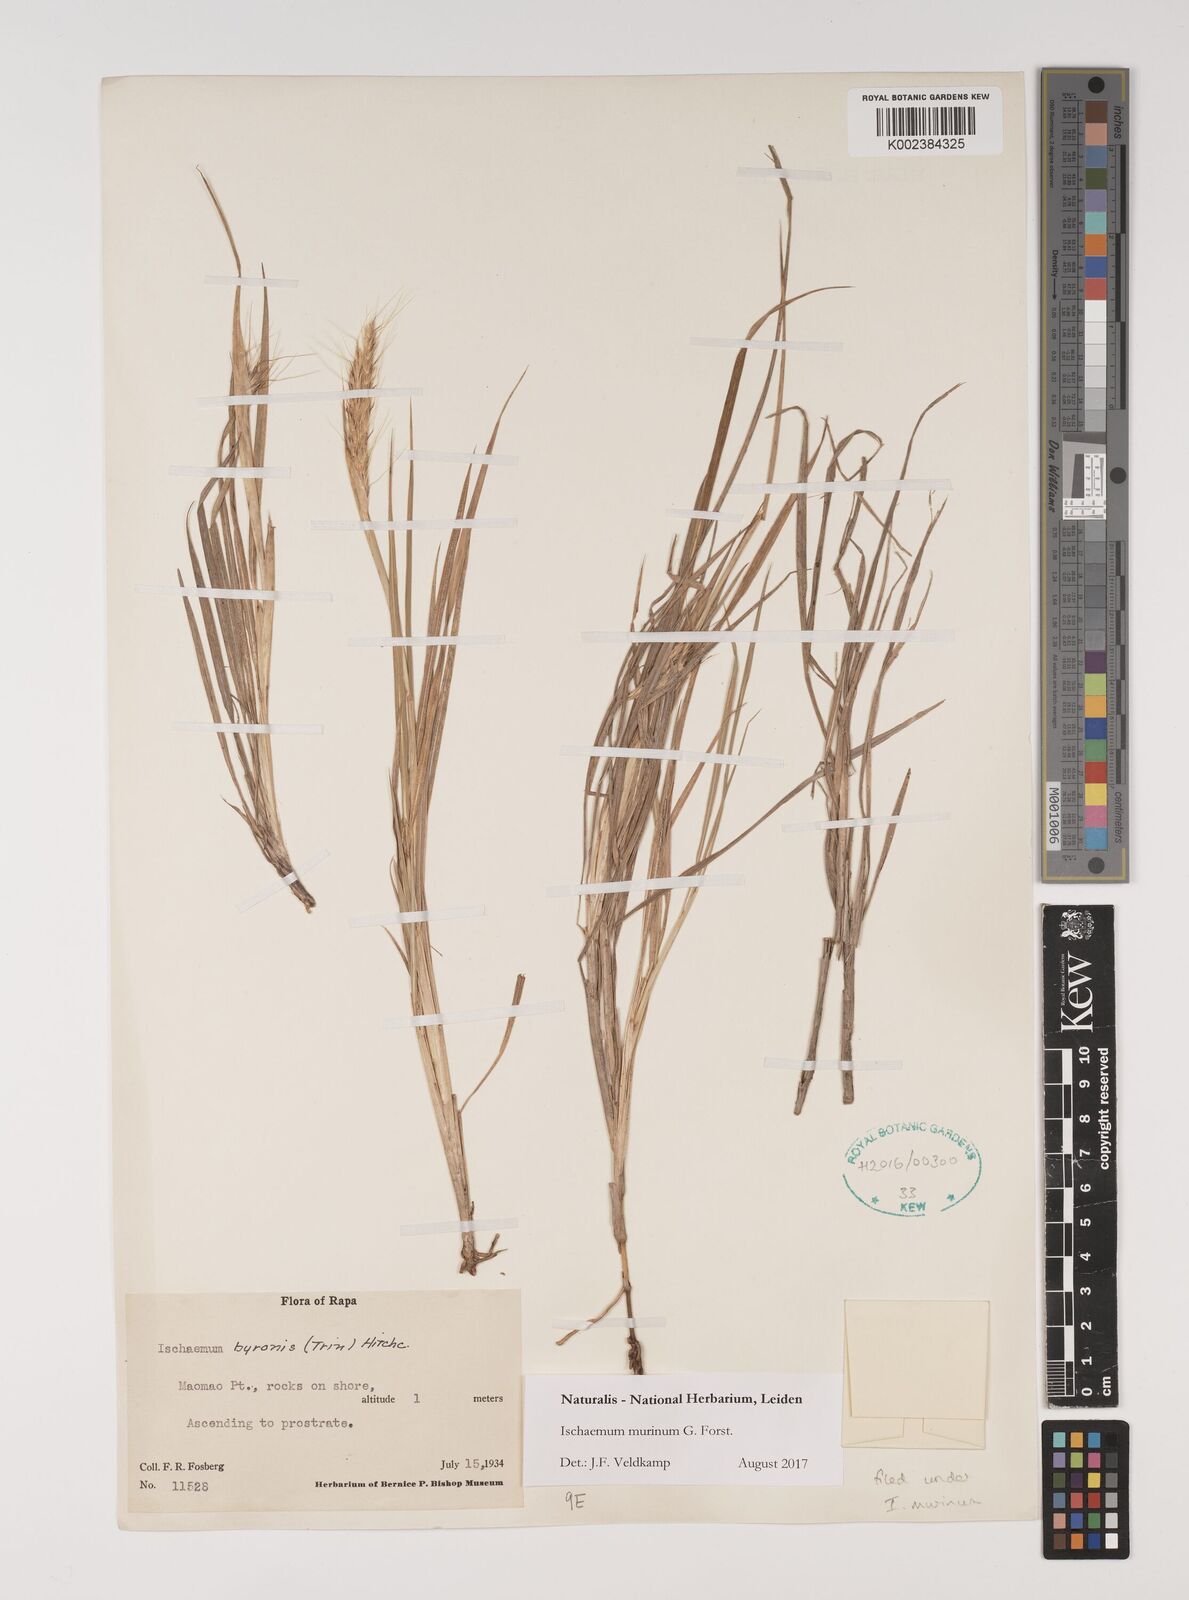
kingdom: Plantae
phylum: Tracheophyta
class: Liliopsida
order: Poales
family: Poaceae
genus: Ischaemum
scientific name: Ischaemum murinum
